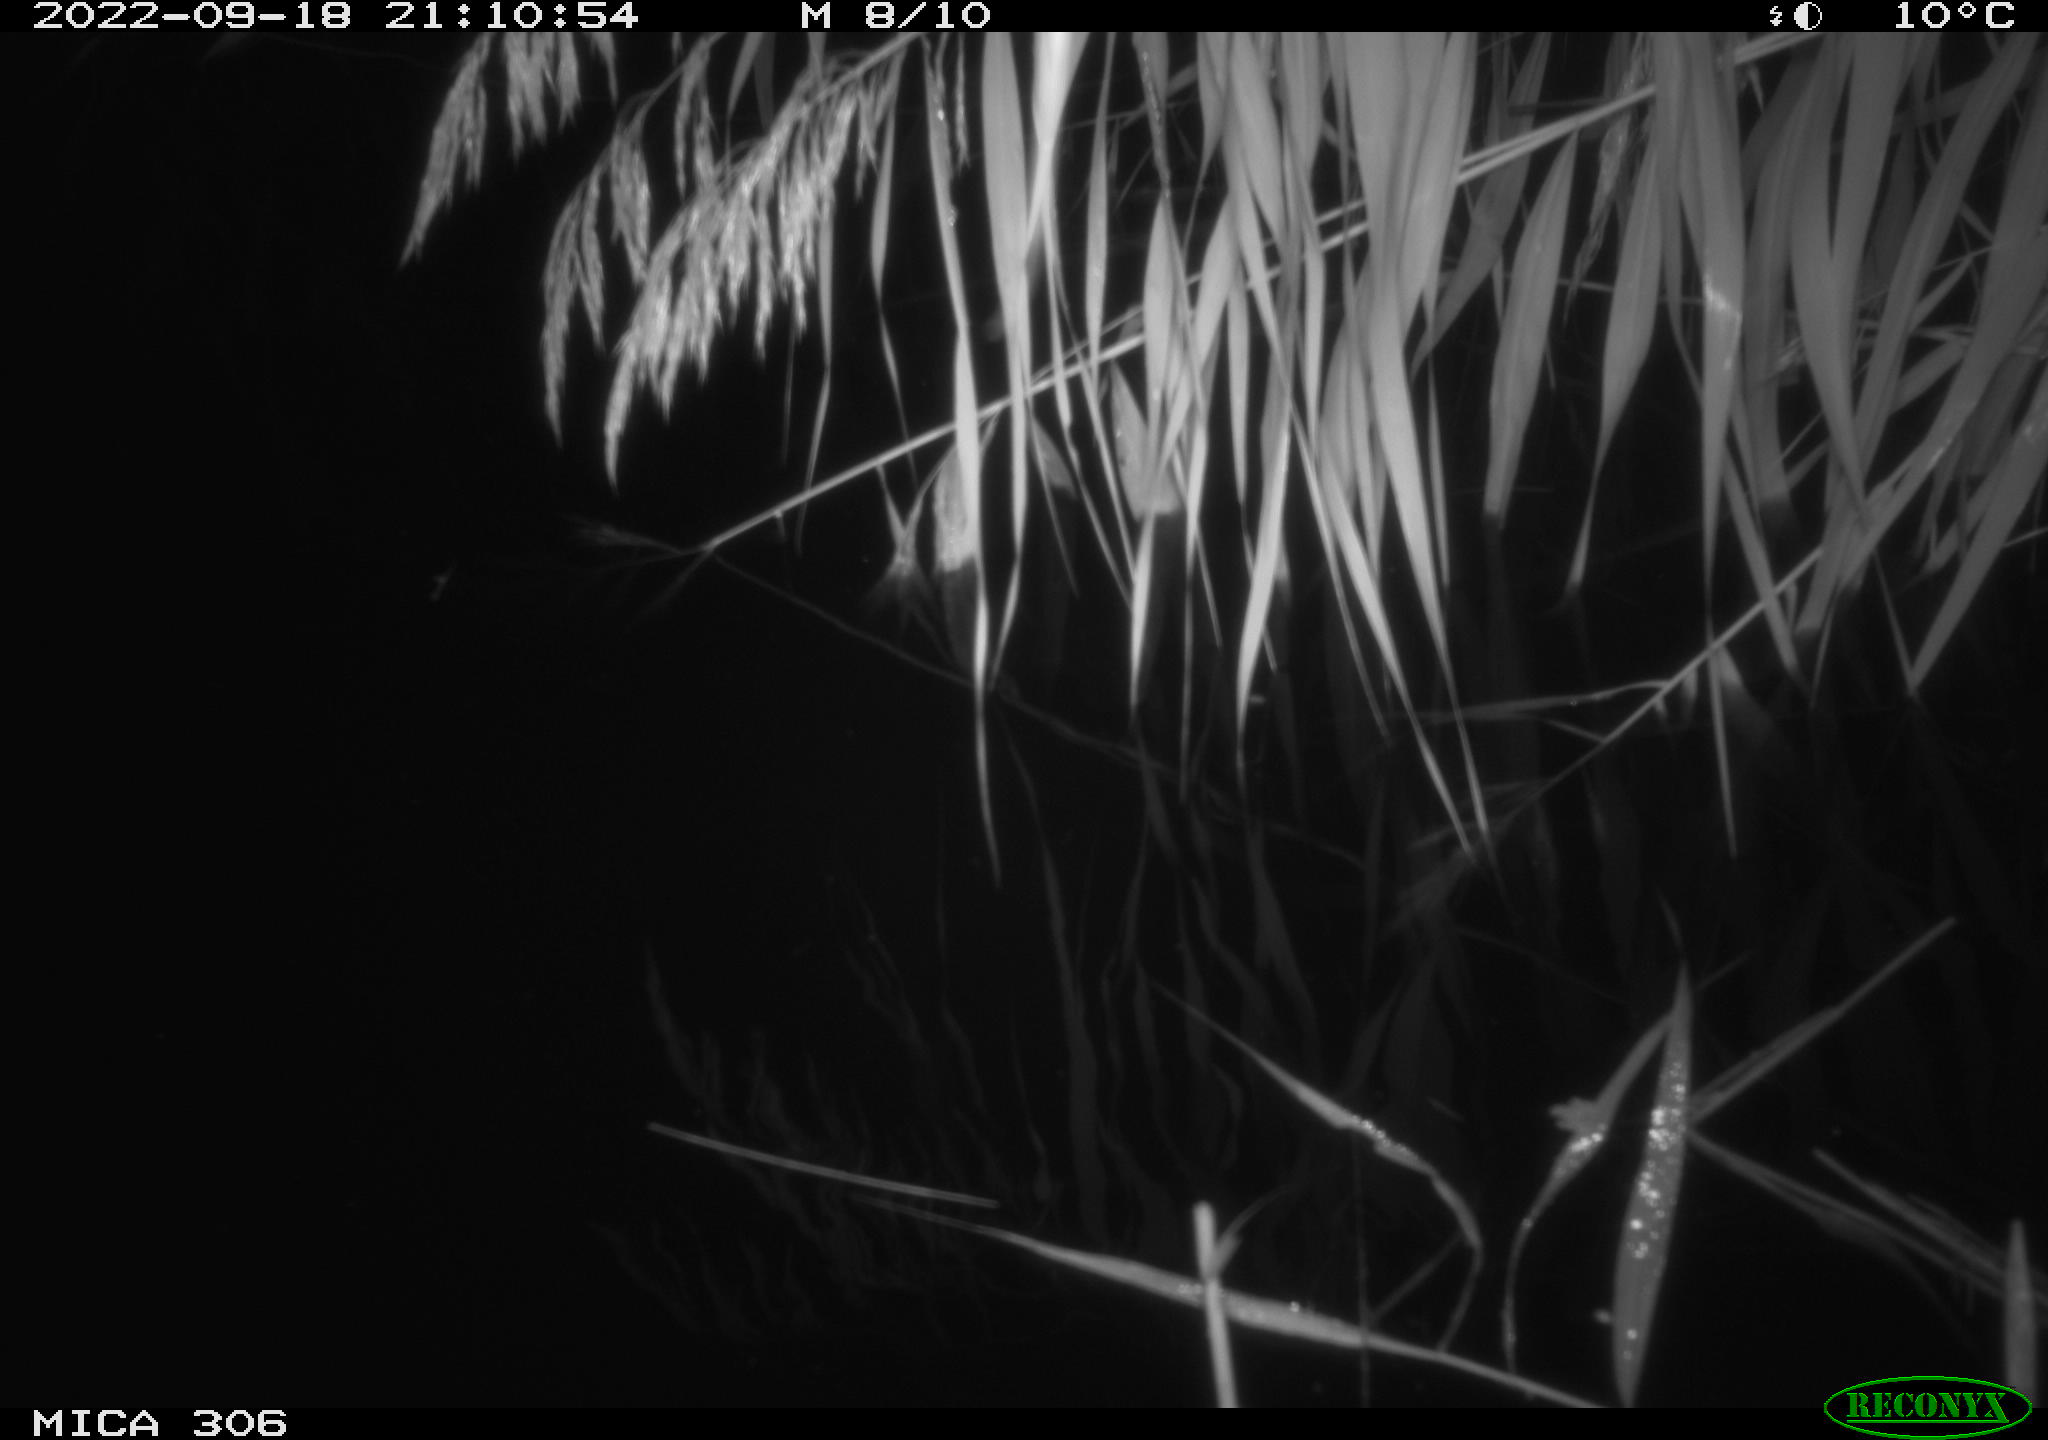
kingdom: Animalia
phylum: Chordata
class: Mammalia
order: Rodentia
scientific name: Rodentia
